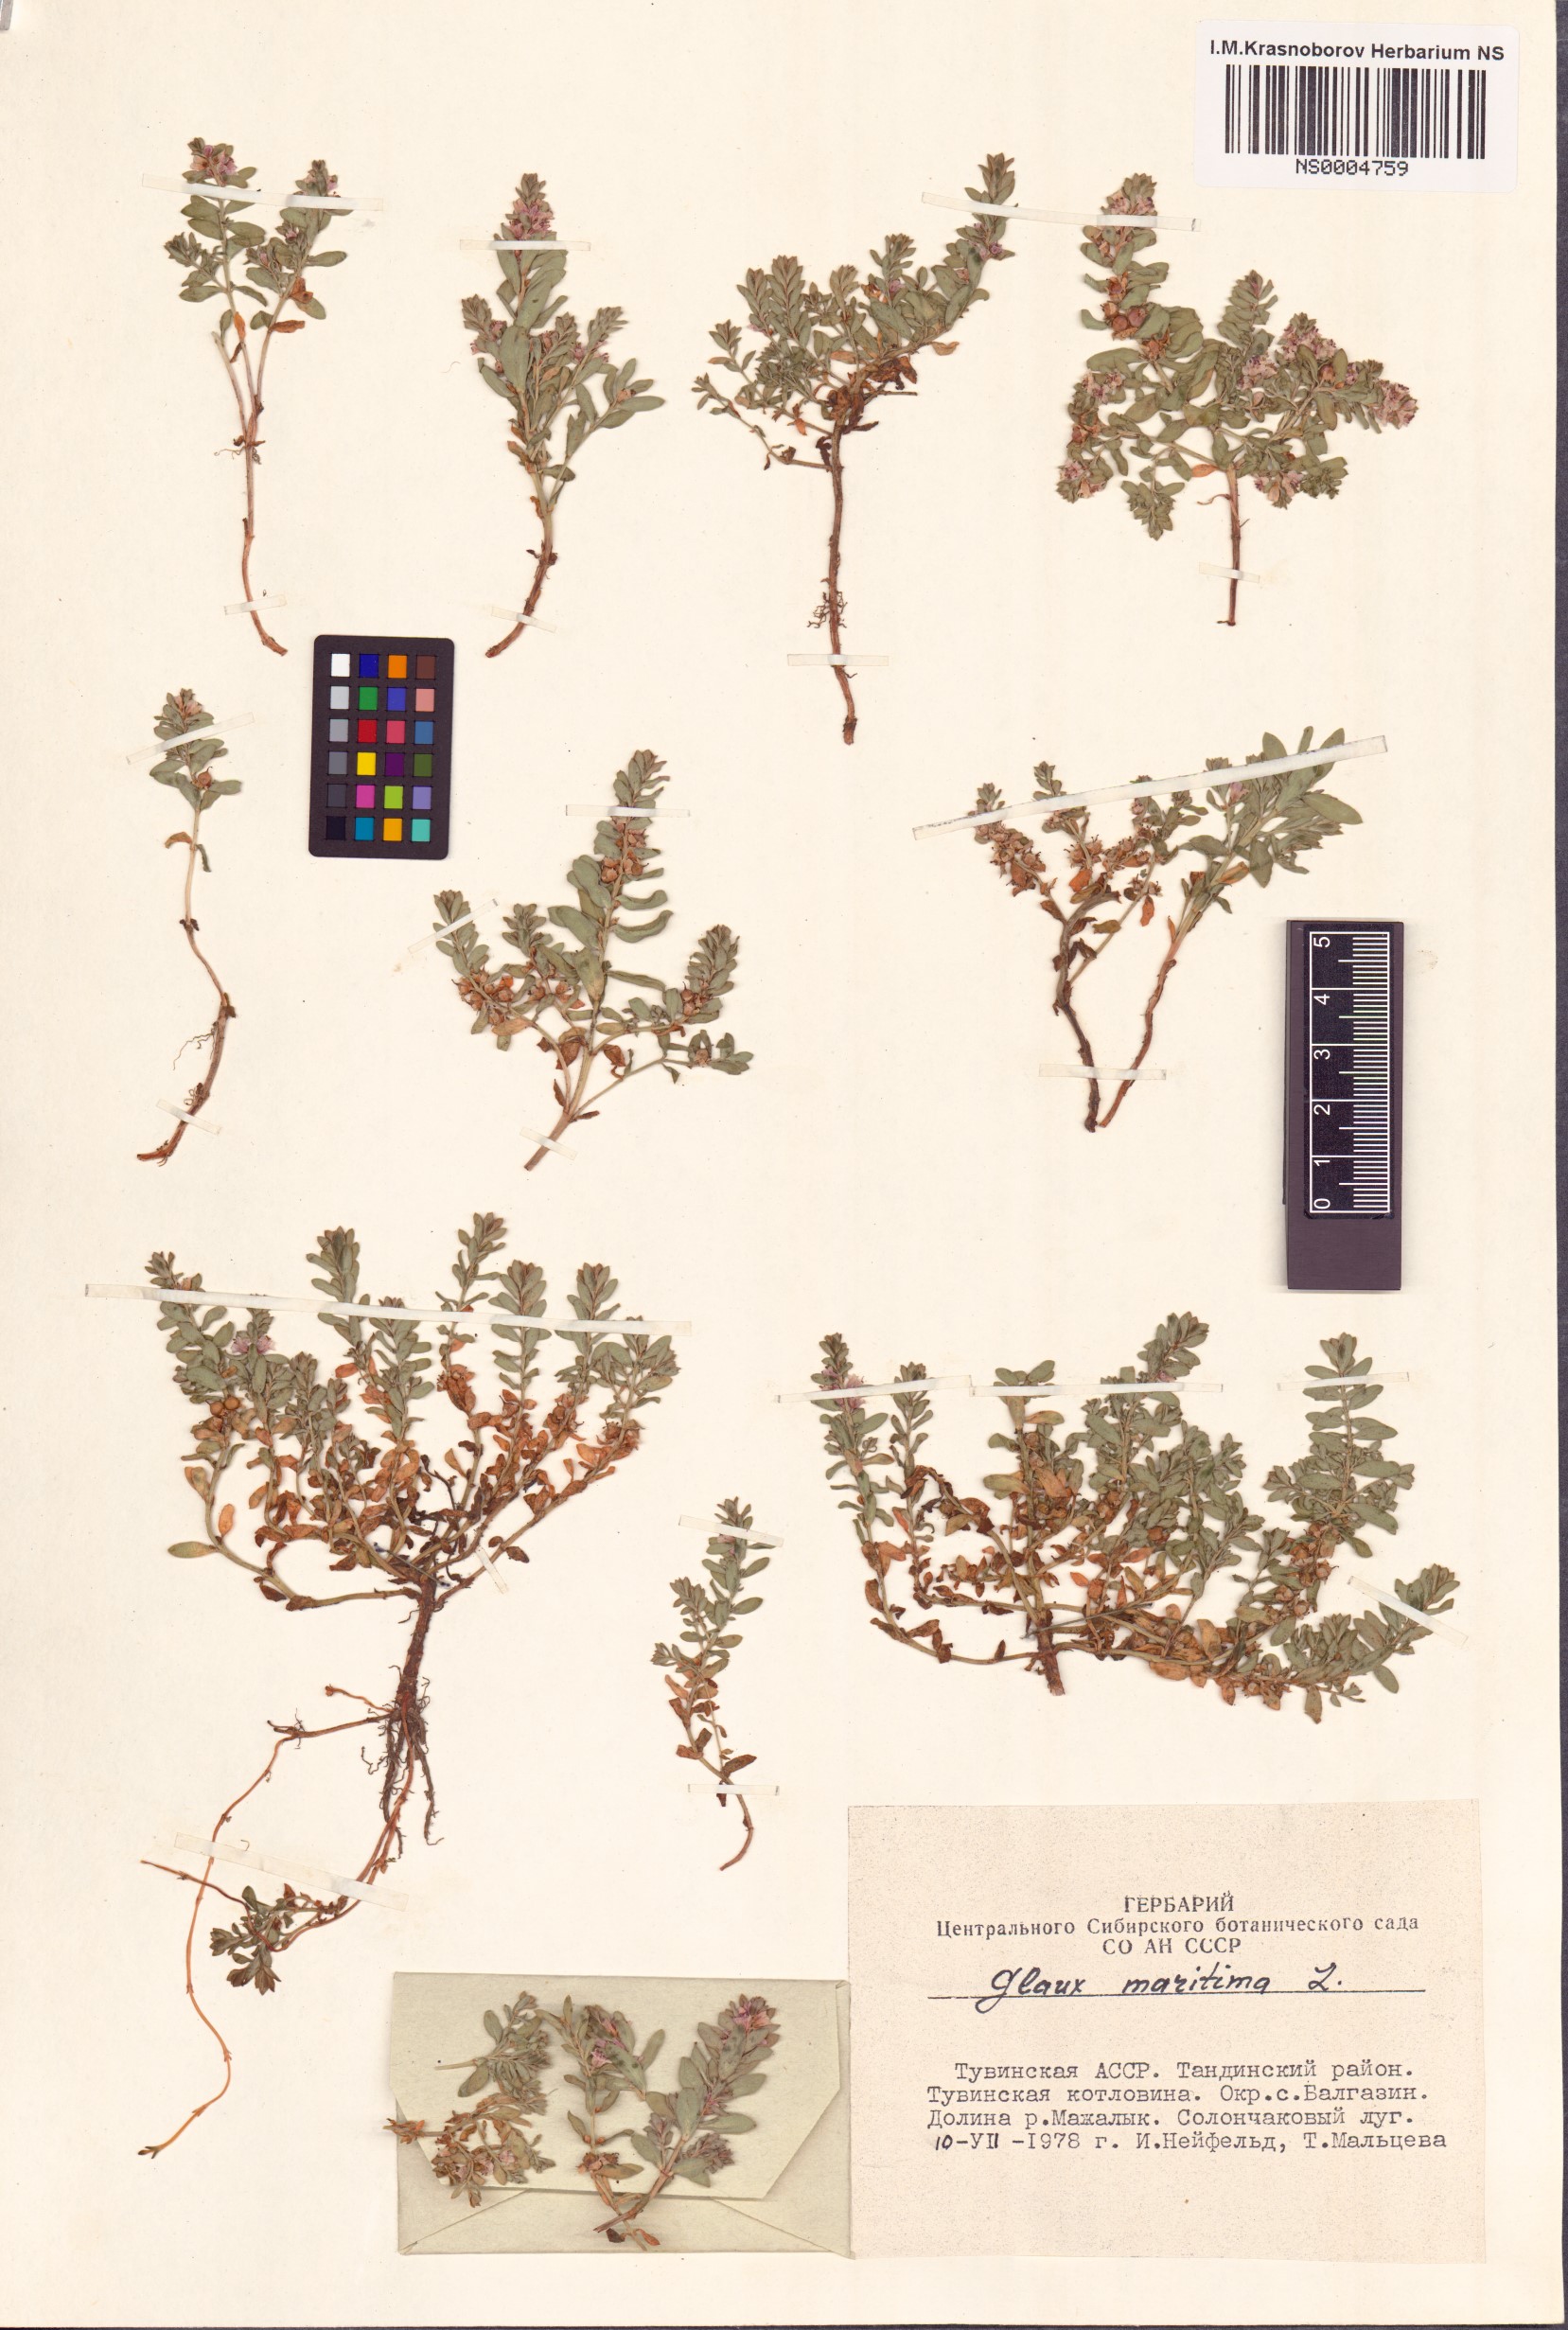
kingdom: Plantae
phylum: Tracheophyta
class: Magnoliopsida
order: Ericales
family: Primulaceae
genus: Lysimachia
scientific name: Lysimachia maritima
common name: Sea milkwort
